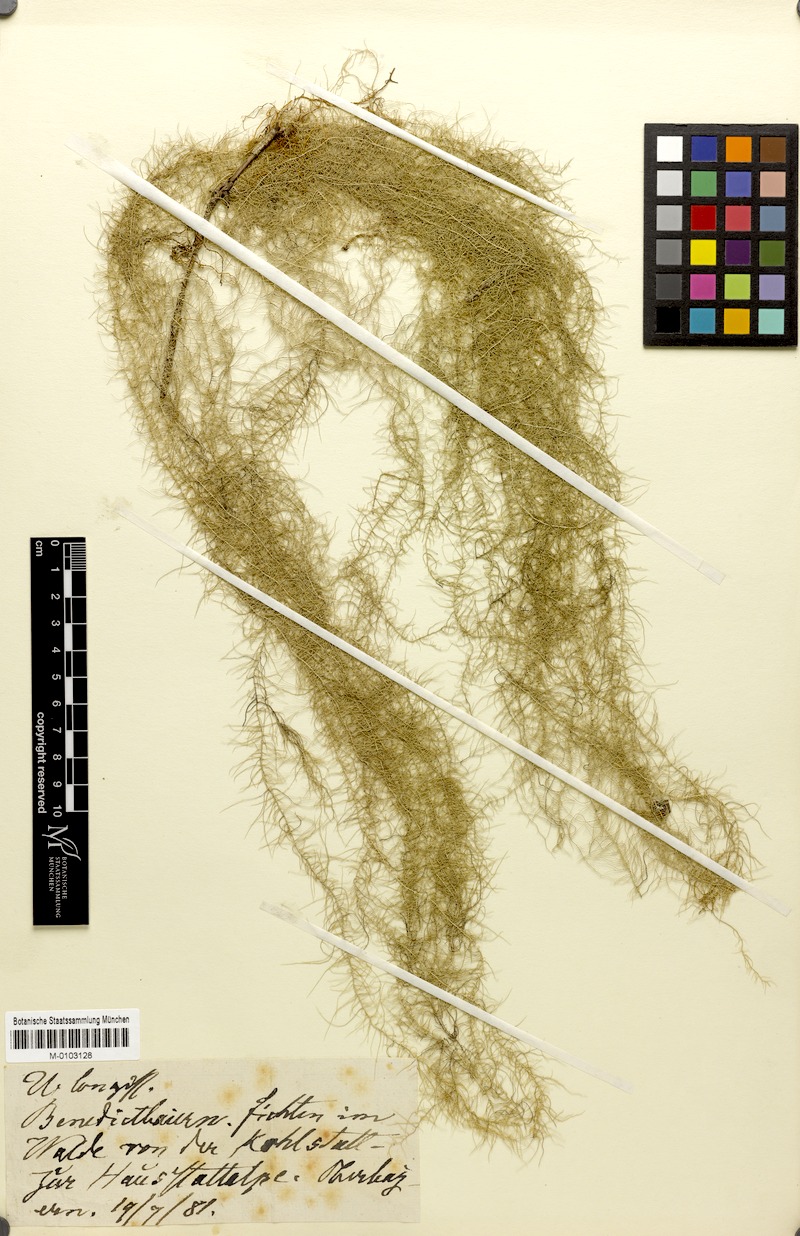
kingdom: Fungi
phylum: Ascomycota
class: Lecanoromycetes
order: Lecanorales
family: Parmeliaceae
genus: Dolichousnea
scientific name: Dolichousnea longissima
